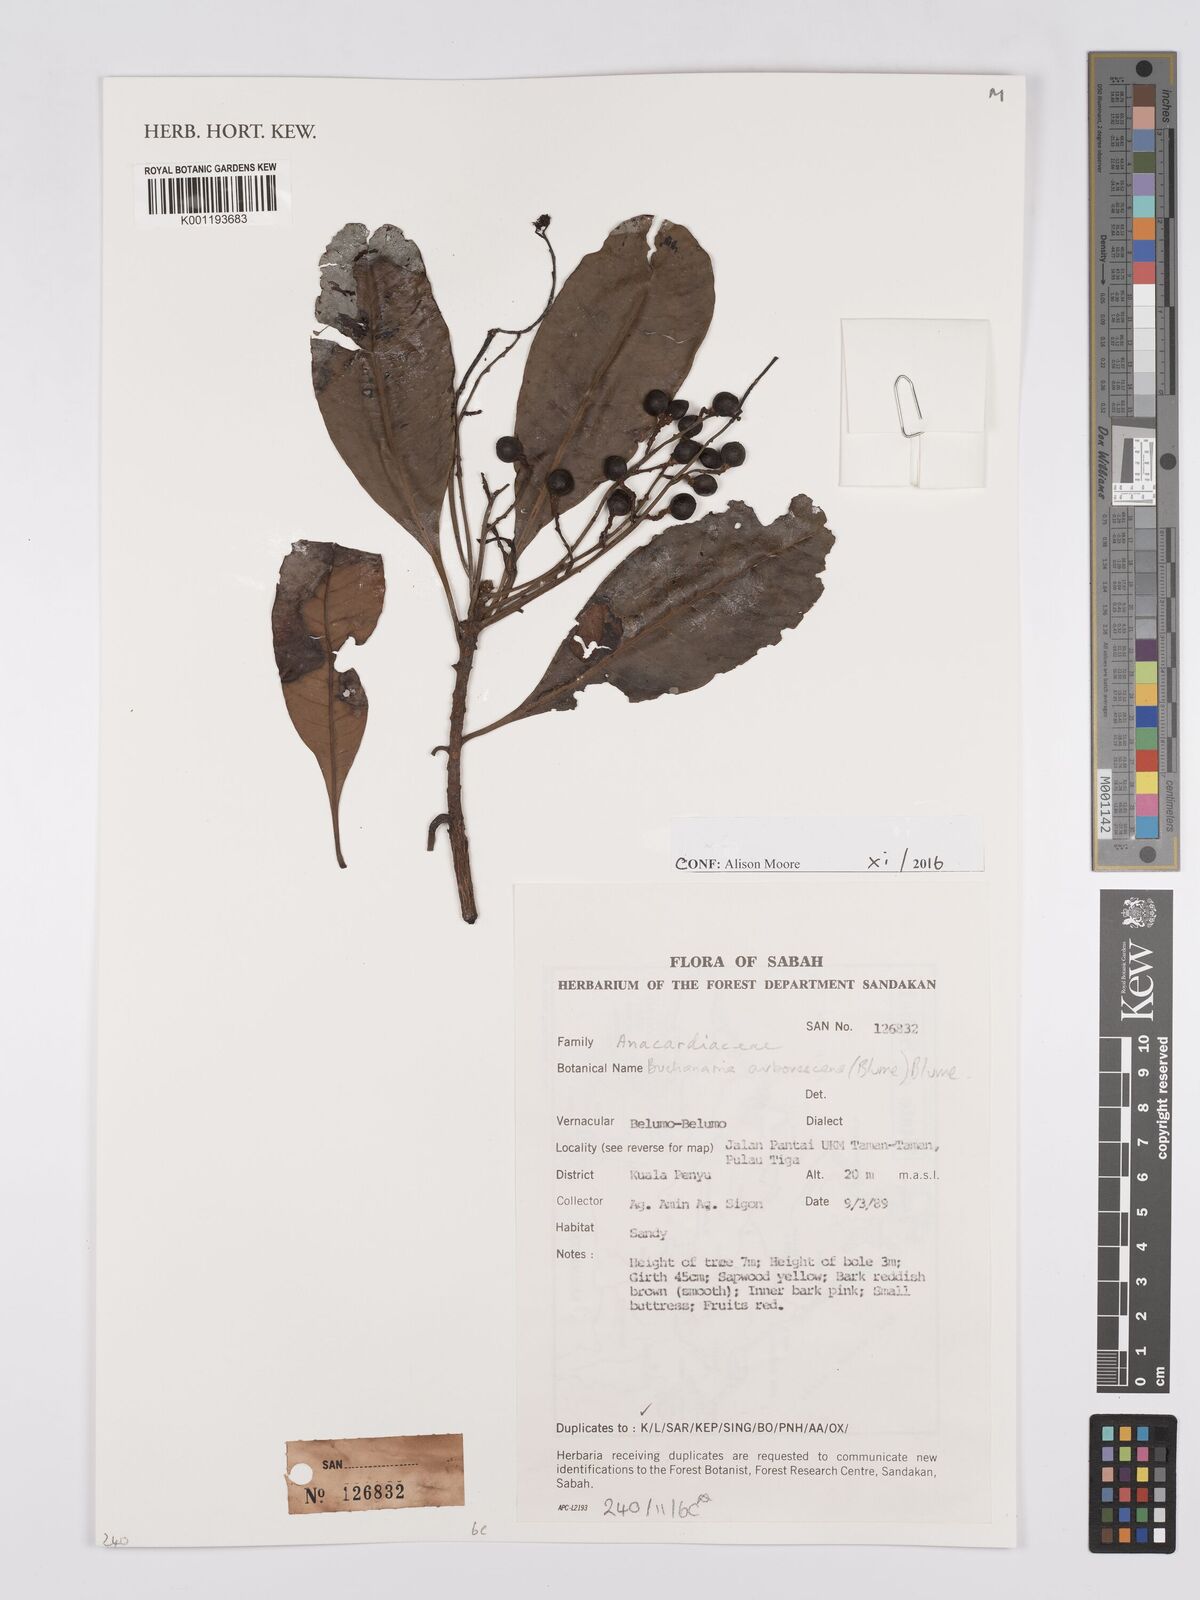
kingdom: Plantae
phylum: Tracheophyta
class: Magnoliopsida
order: Sapindales
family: Anacardiaceae
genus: Buchanania
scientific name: Buchanania arborescens
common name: Sparrow’s mango
